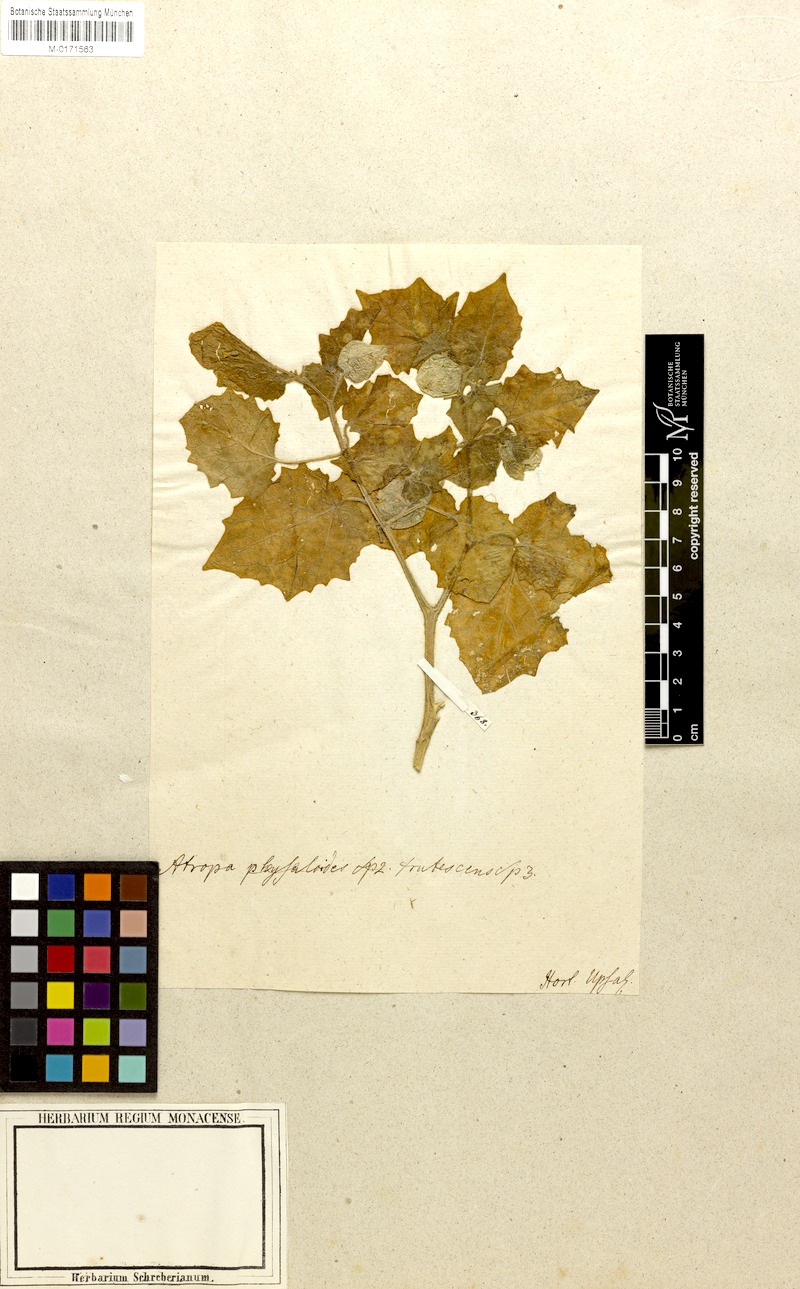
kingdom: Plantae
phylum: Tracheophyta
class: Magnoliopsida
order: Solanales
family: Solanaceae
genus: Withania
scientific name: Withania somnifera
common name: Winter-cherry
